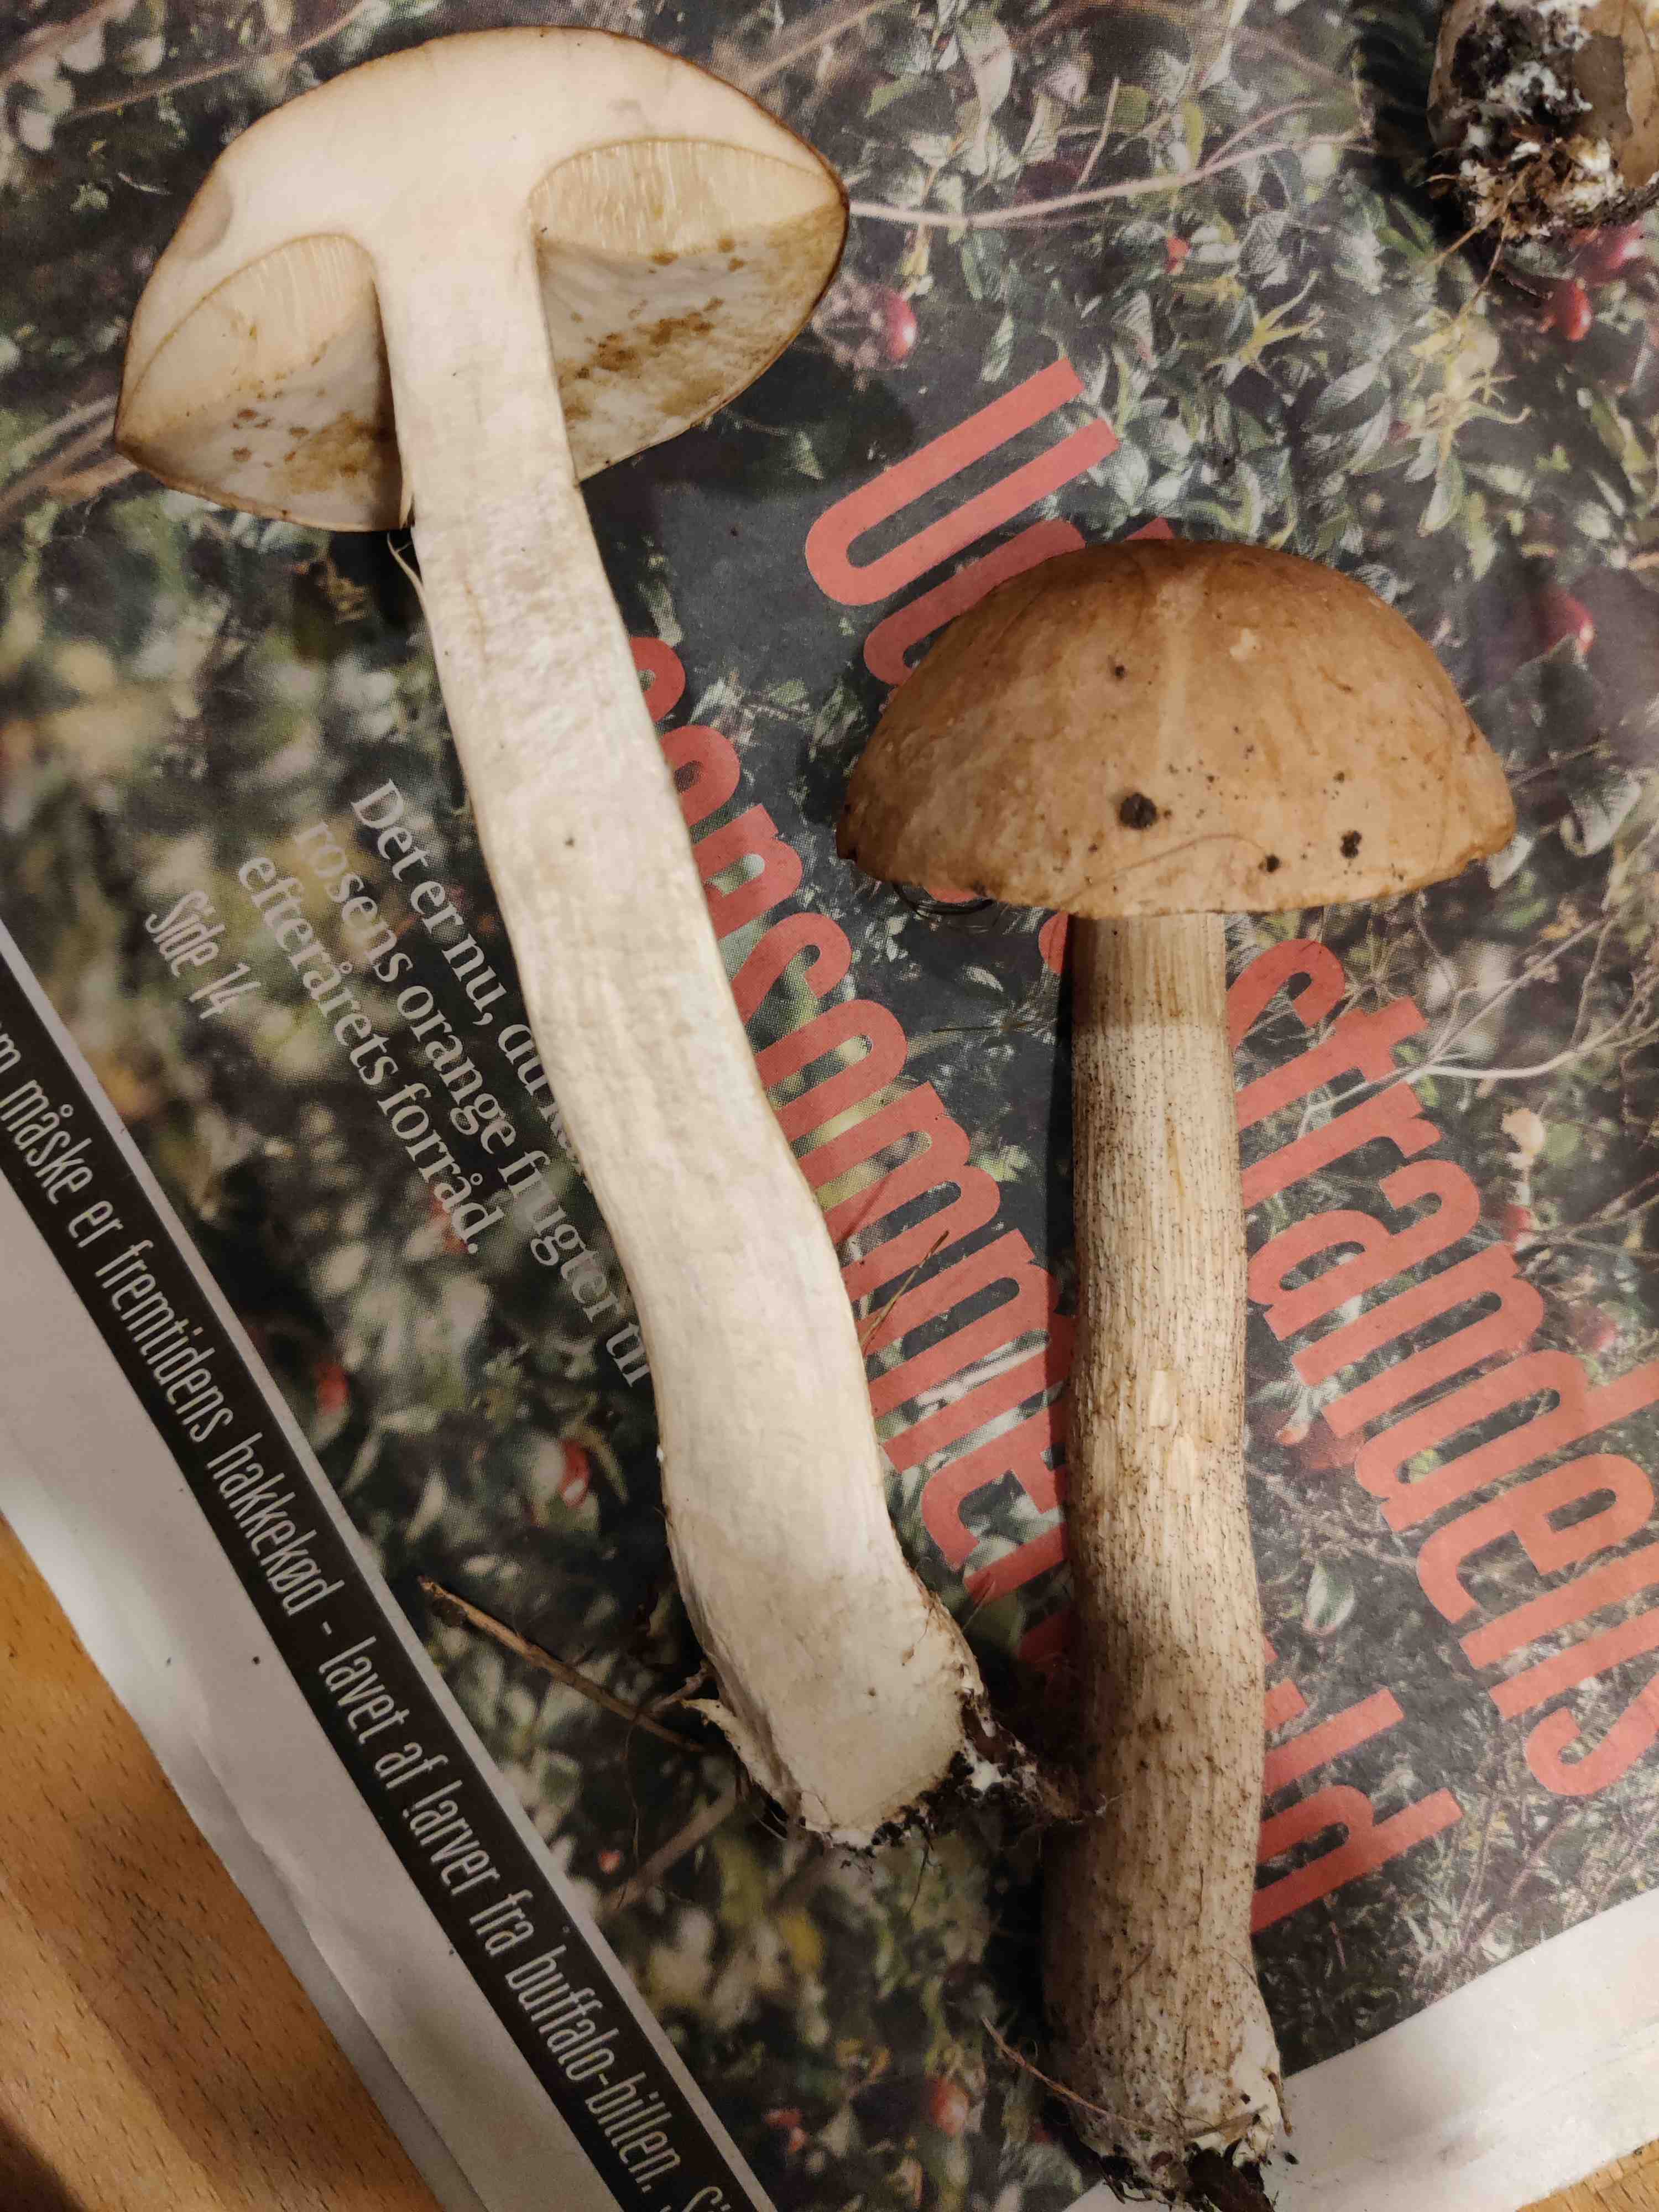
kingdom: Fungi
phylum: Basidiomycota
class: Agaricomycetes
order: Boletales
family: Boletaceae
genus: Leccinum
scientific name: Leccinum
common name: skælrørhat
